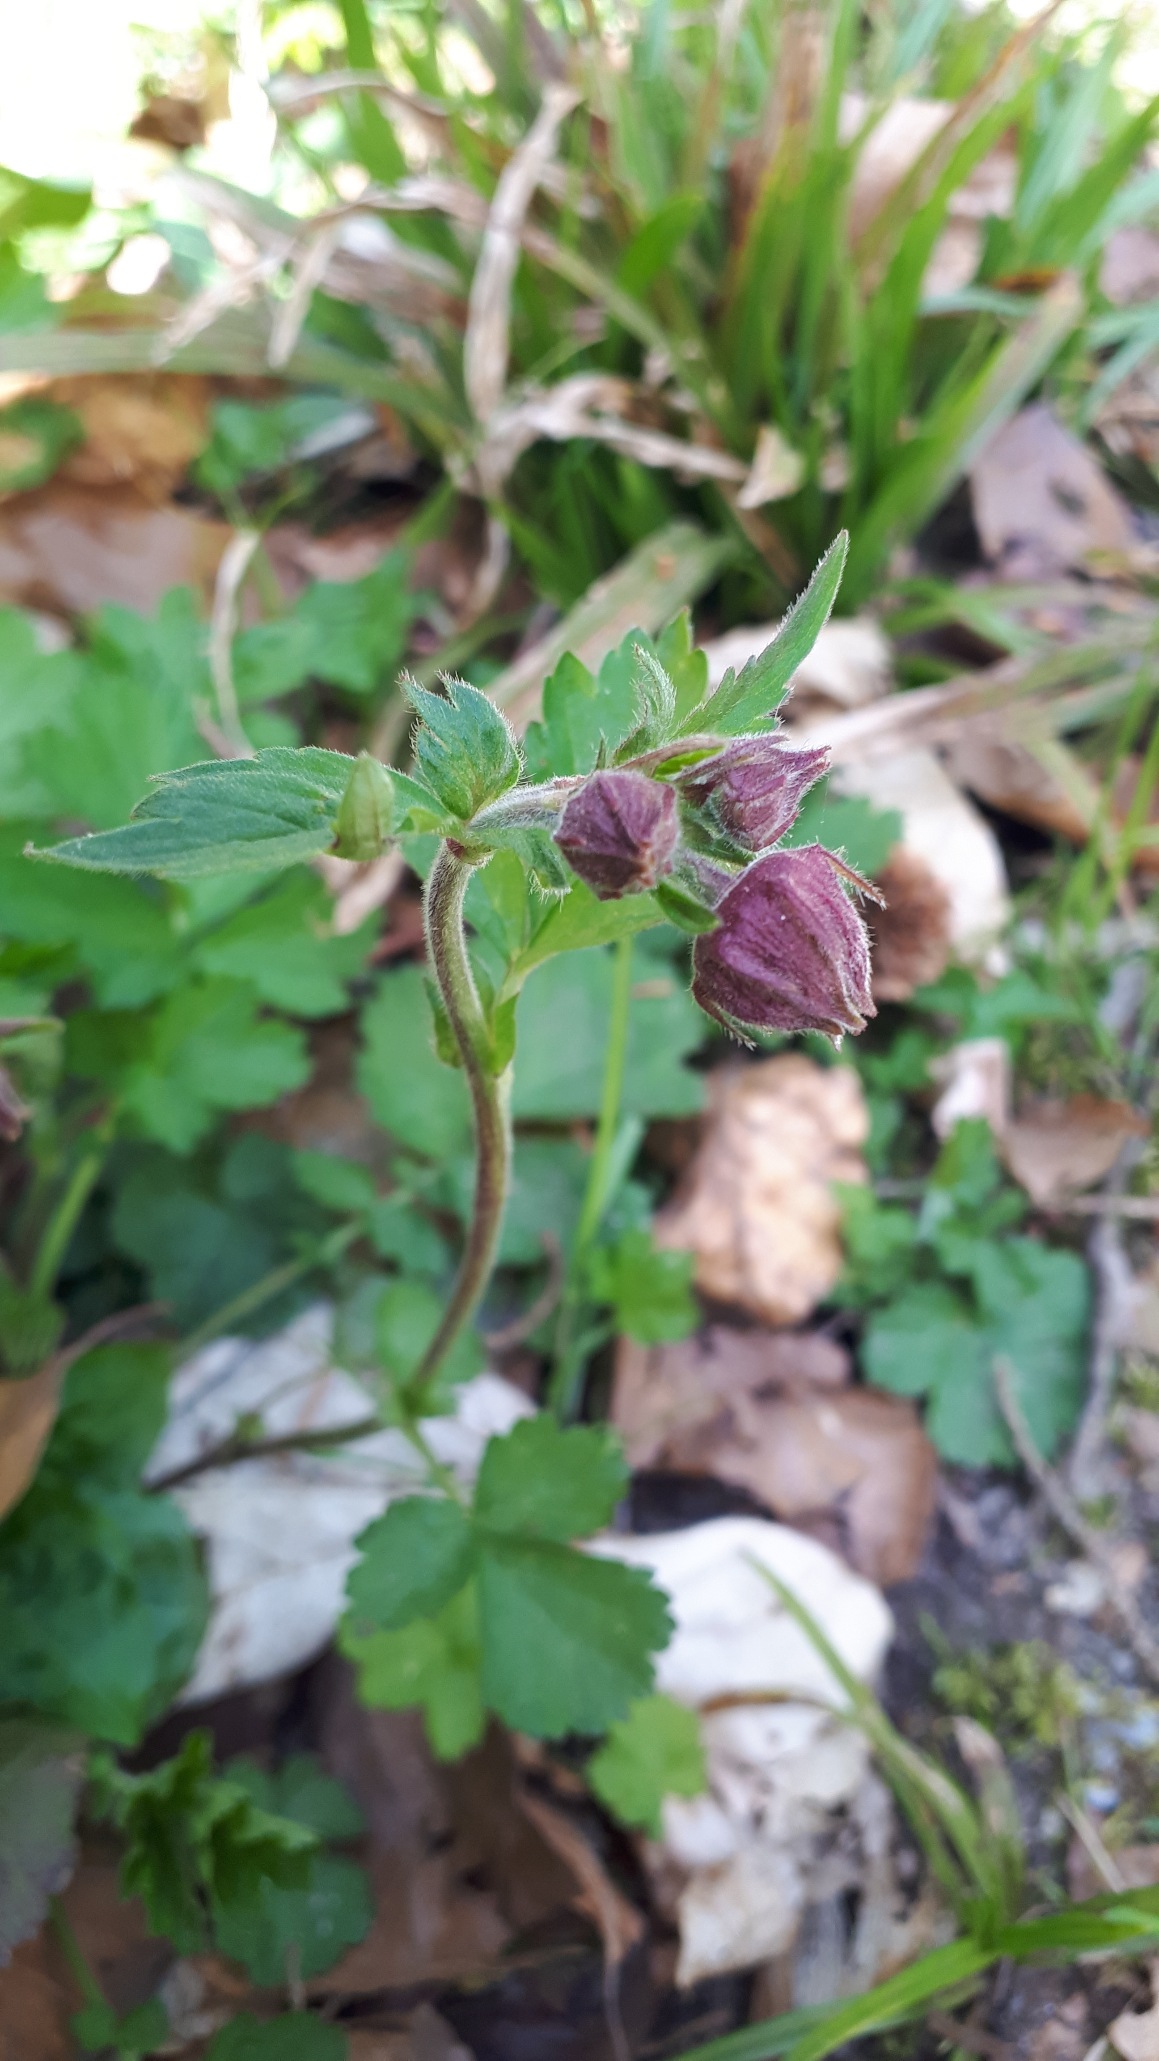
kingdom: Plantae
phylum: Tracheophyta
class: Magnoliopsida
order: Rosales
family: Rosaceae
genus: Geum
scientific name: Geum rivale
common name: Eng-nellikerod
